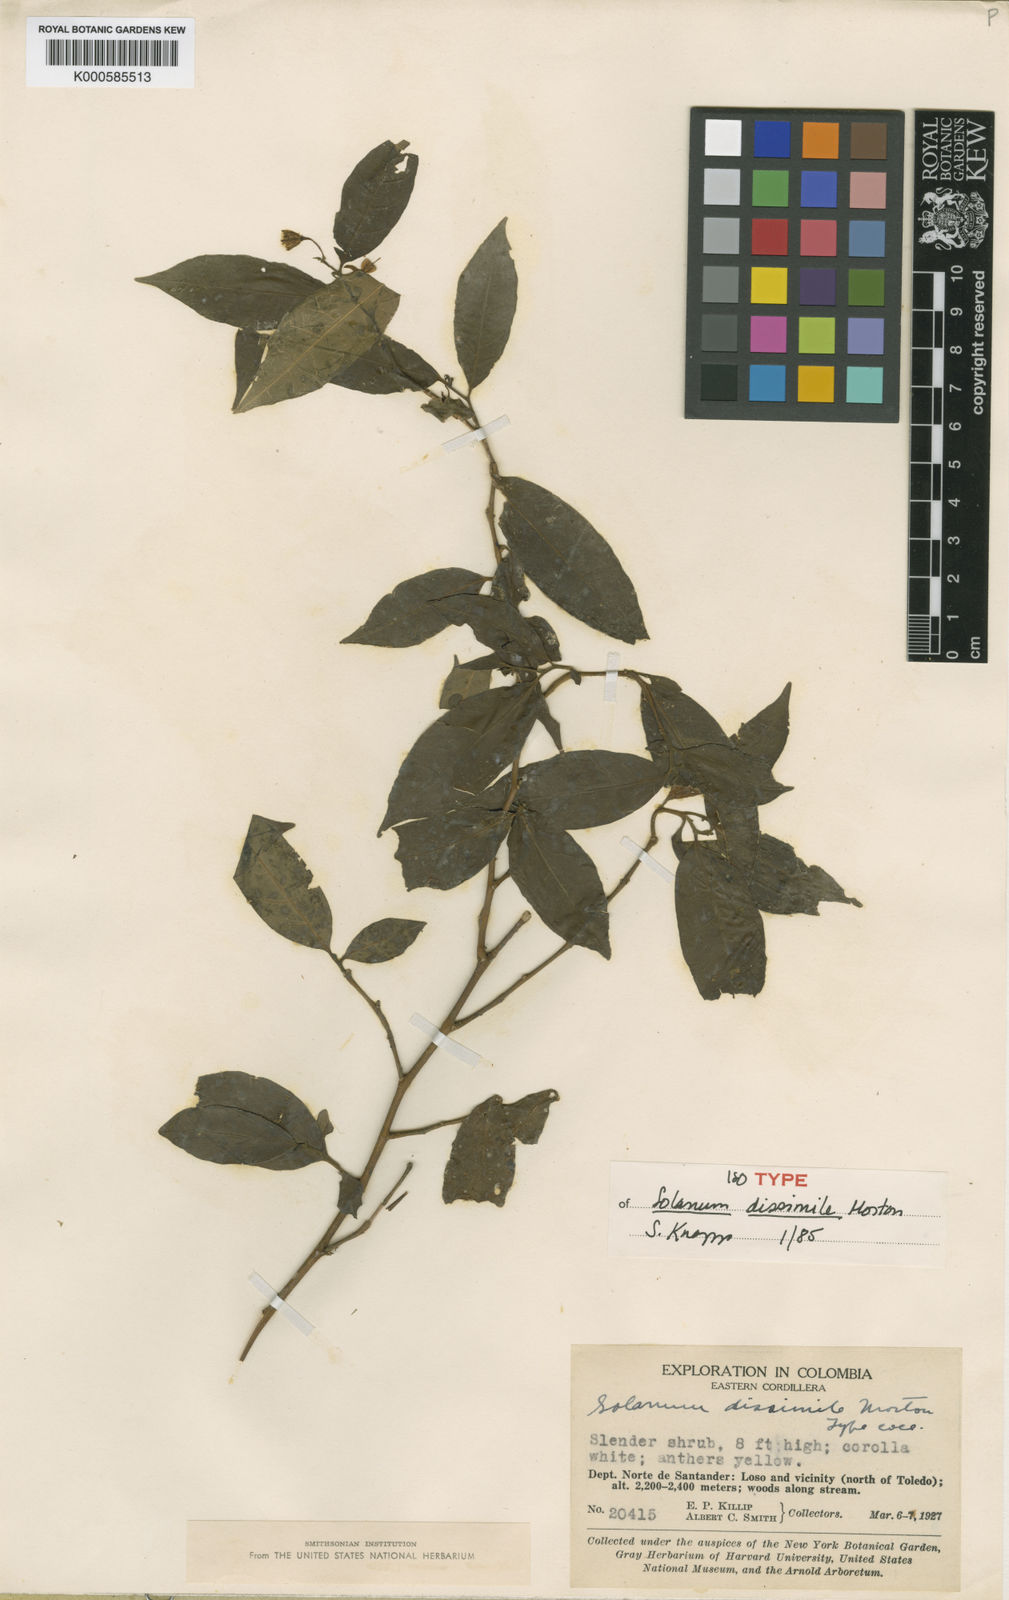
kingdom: Plantae
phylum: Tracheophyta
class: Magnoliopsida
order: Solanales
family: Solanaceae
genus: Solanum
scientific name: Solanum dissimile
